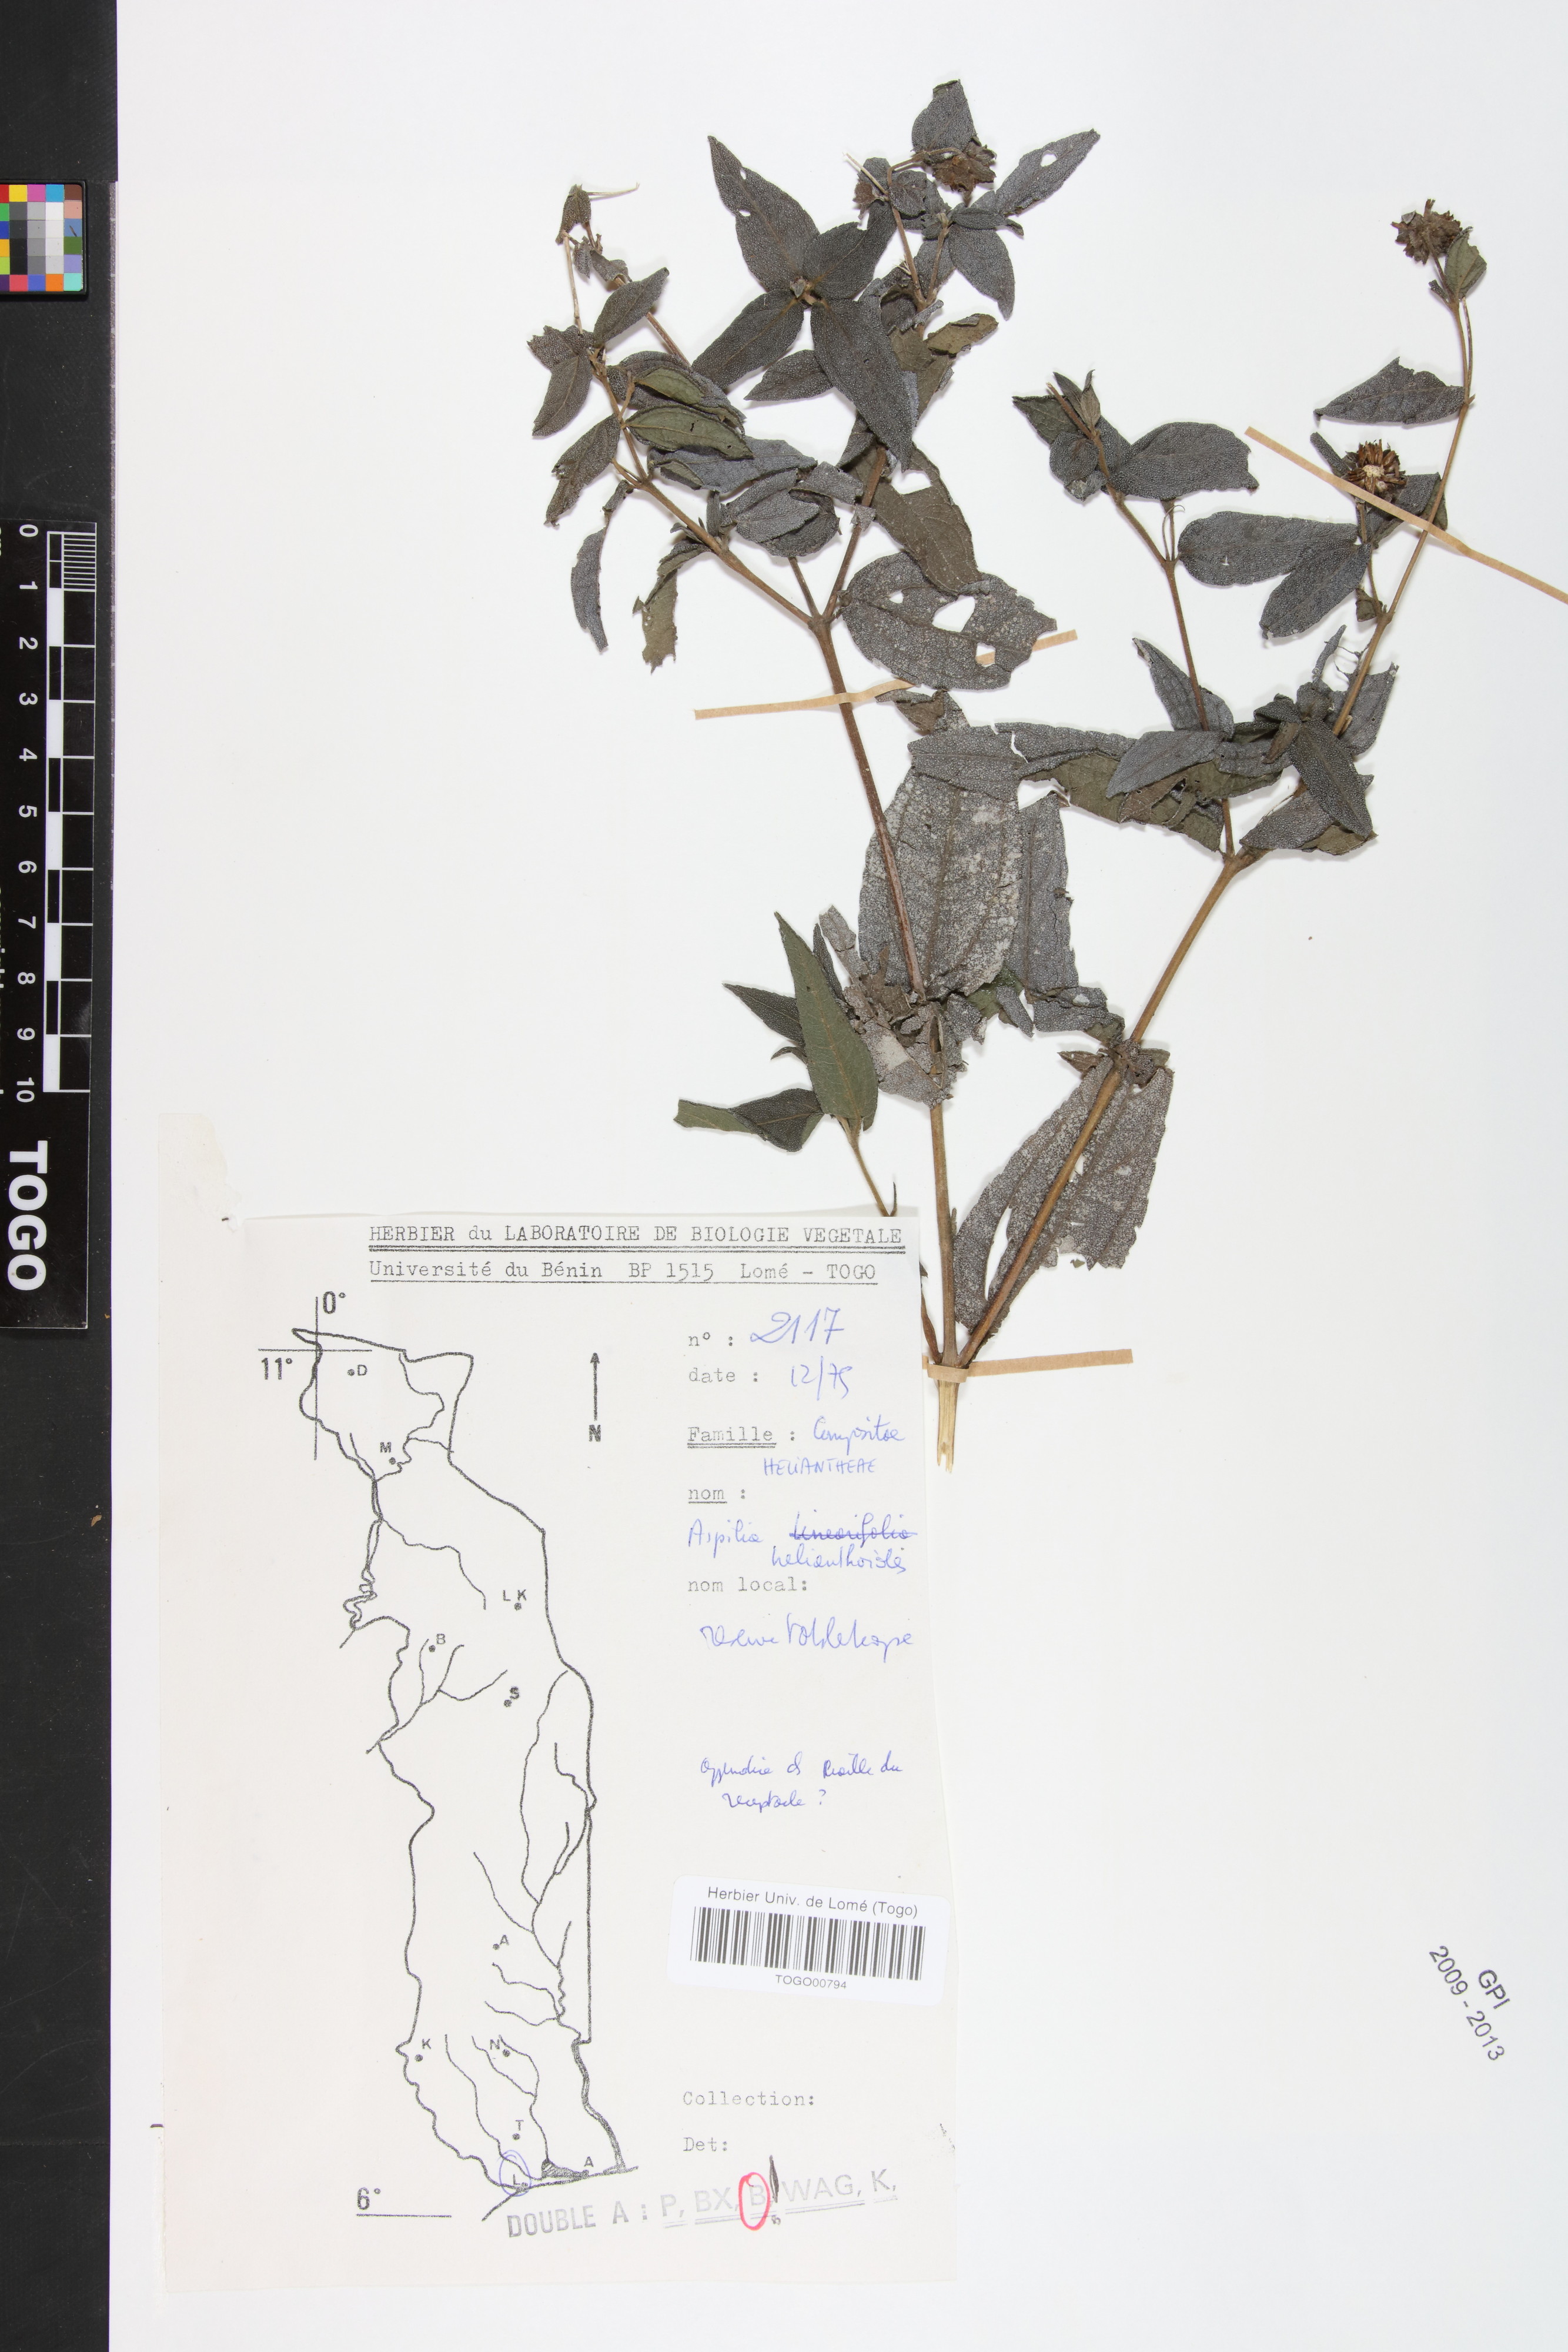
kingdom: Plantae
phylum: Tracheophyta
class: Magnoliopsida
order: Asterales
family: Asteraceae
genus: Aspilia
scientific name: Aspilia helianthoides
